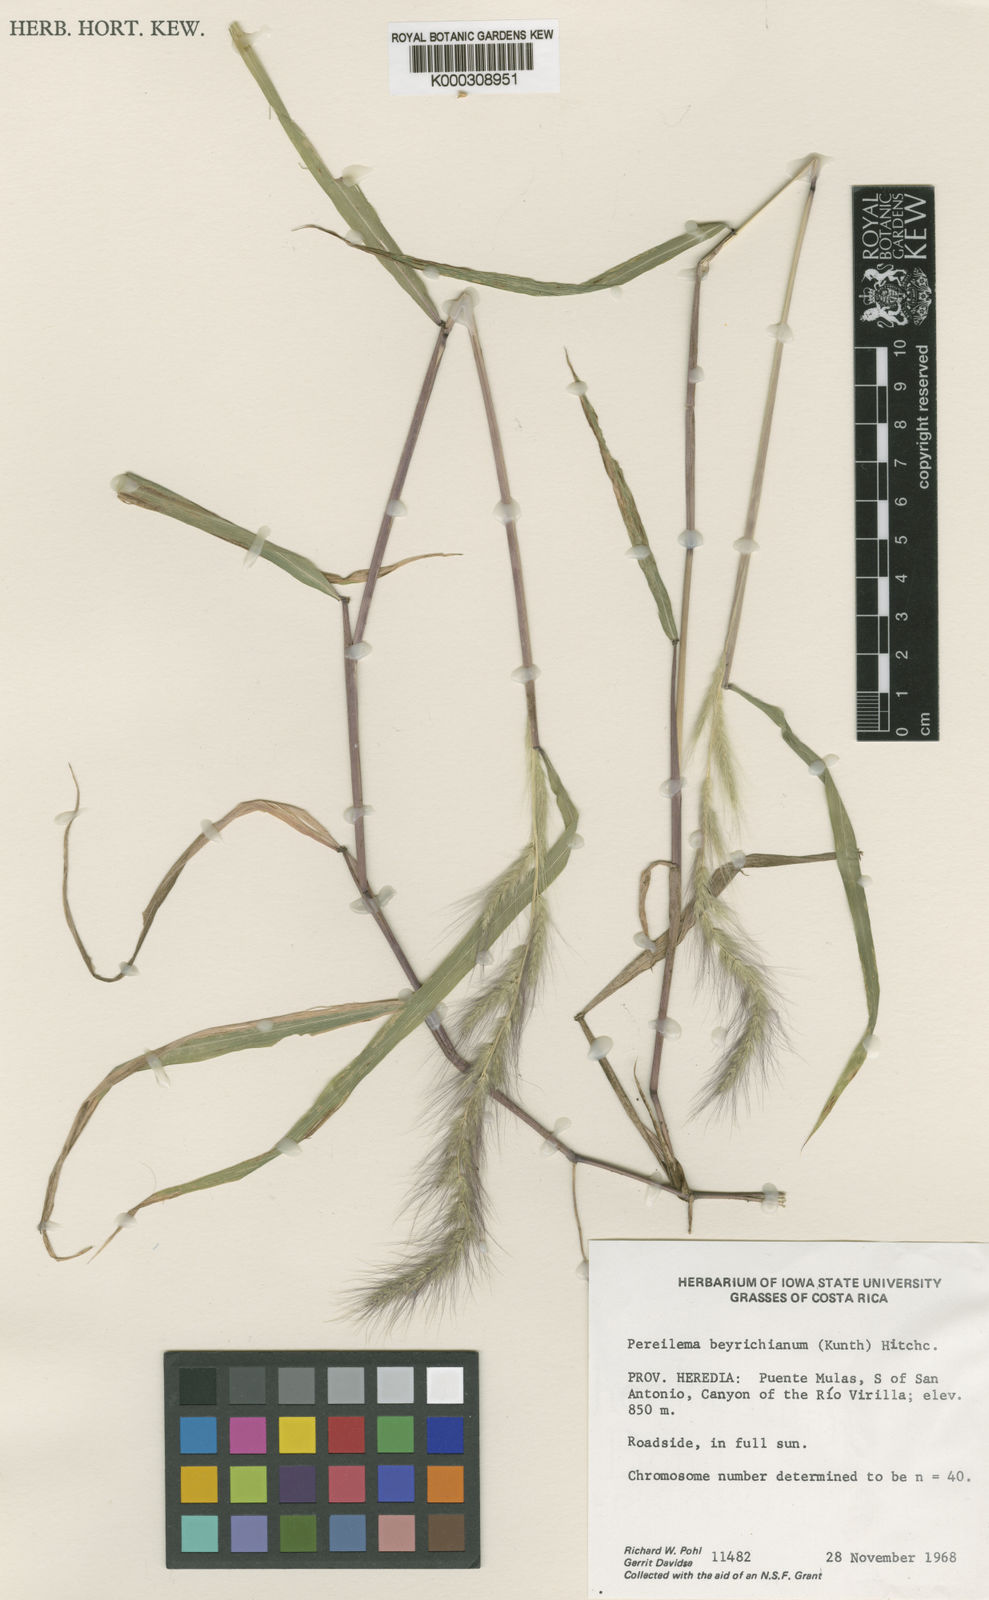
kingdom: Plantae
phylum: Tracheophyta
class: Liliopsida
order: Poales
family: Poaceae
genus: Muhlenbergia
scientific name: Muhlenbergia diandra
